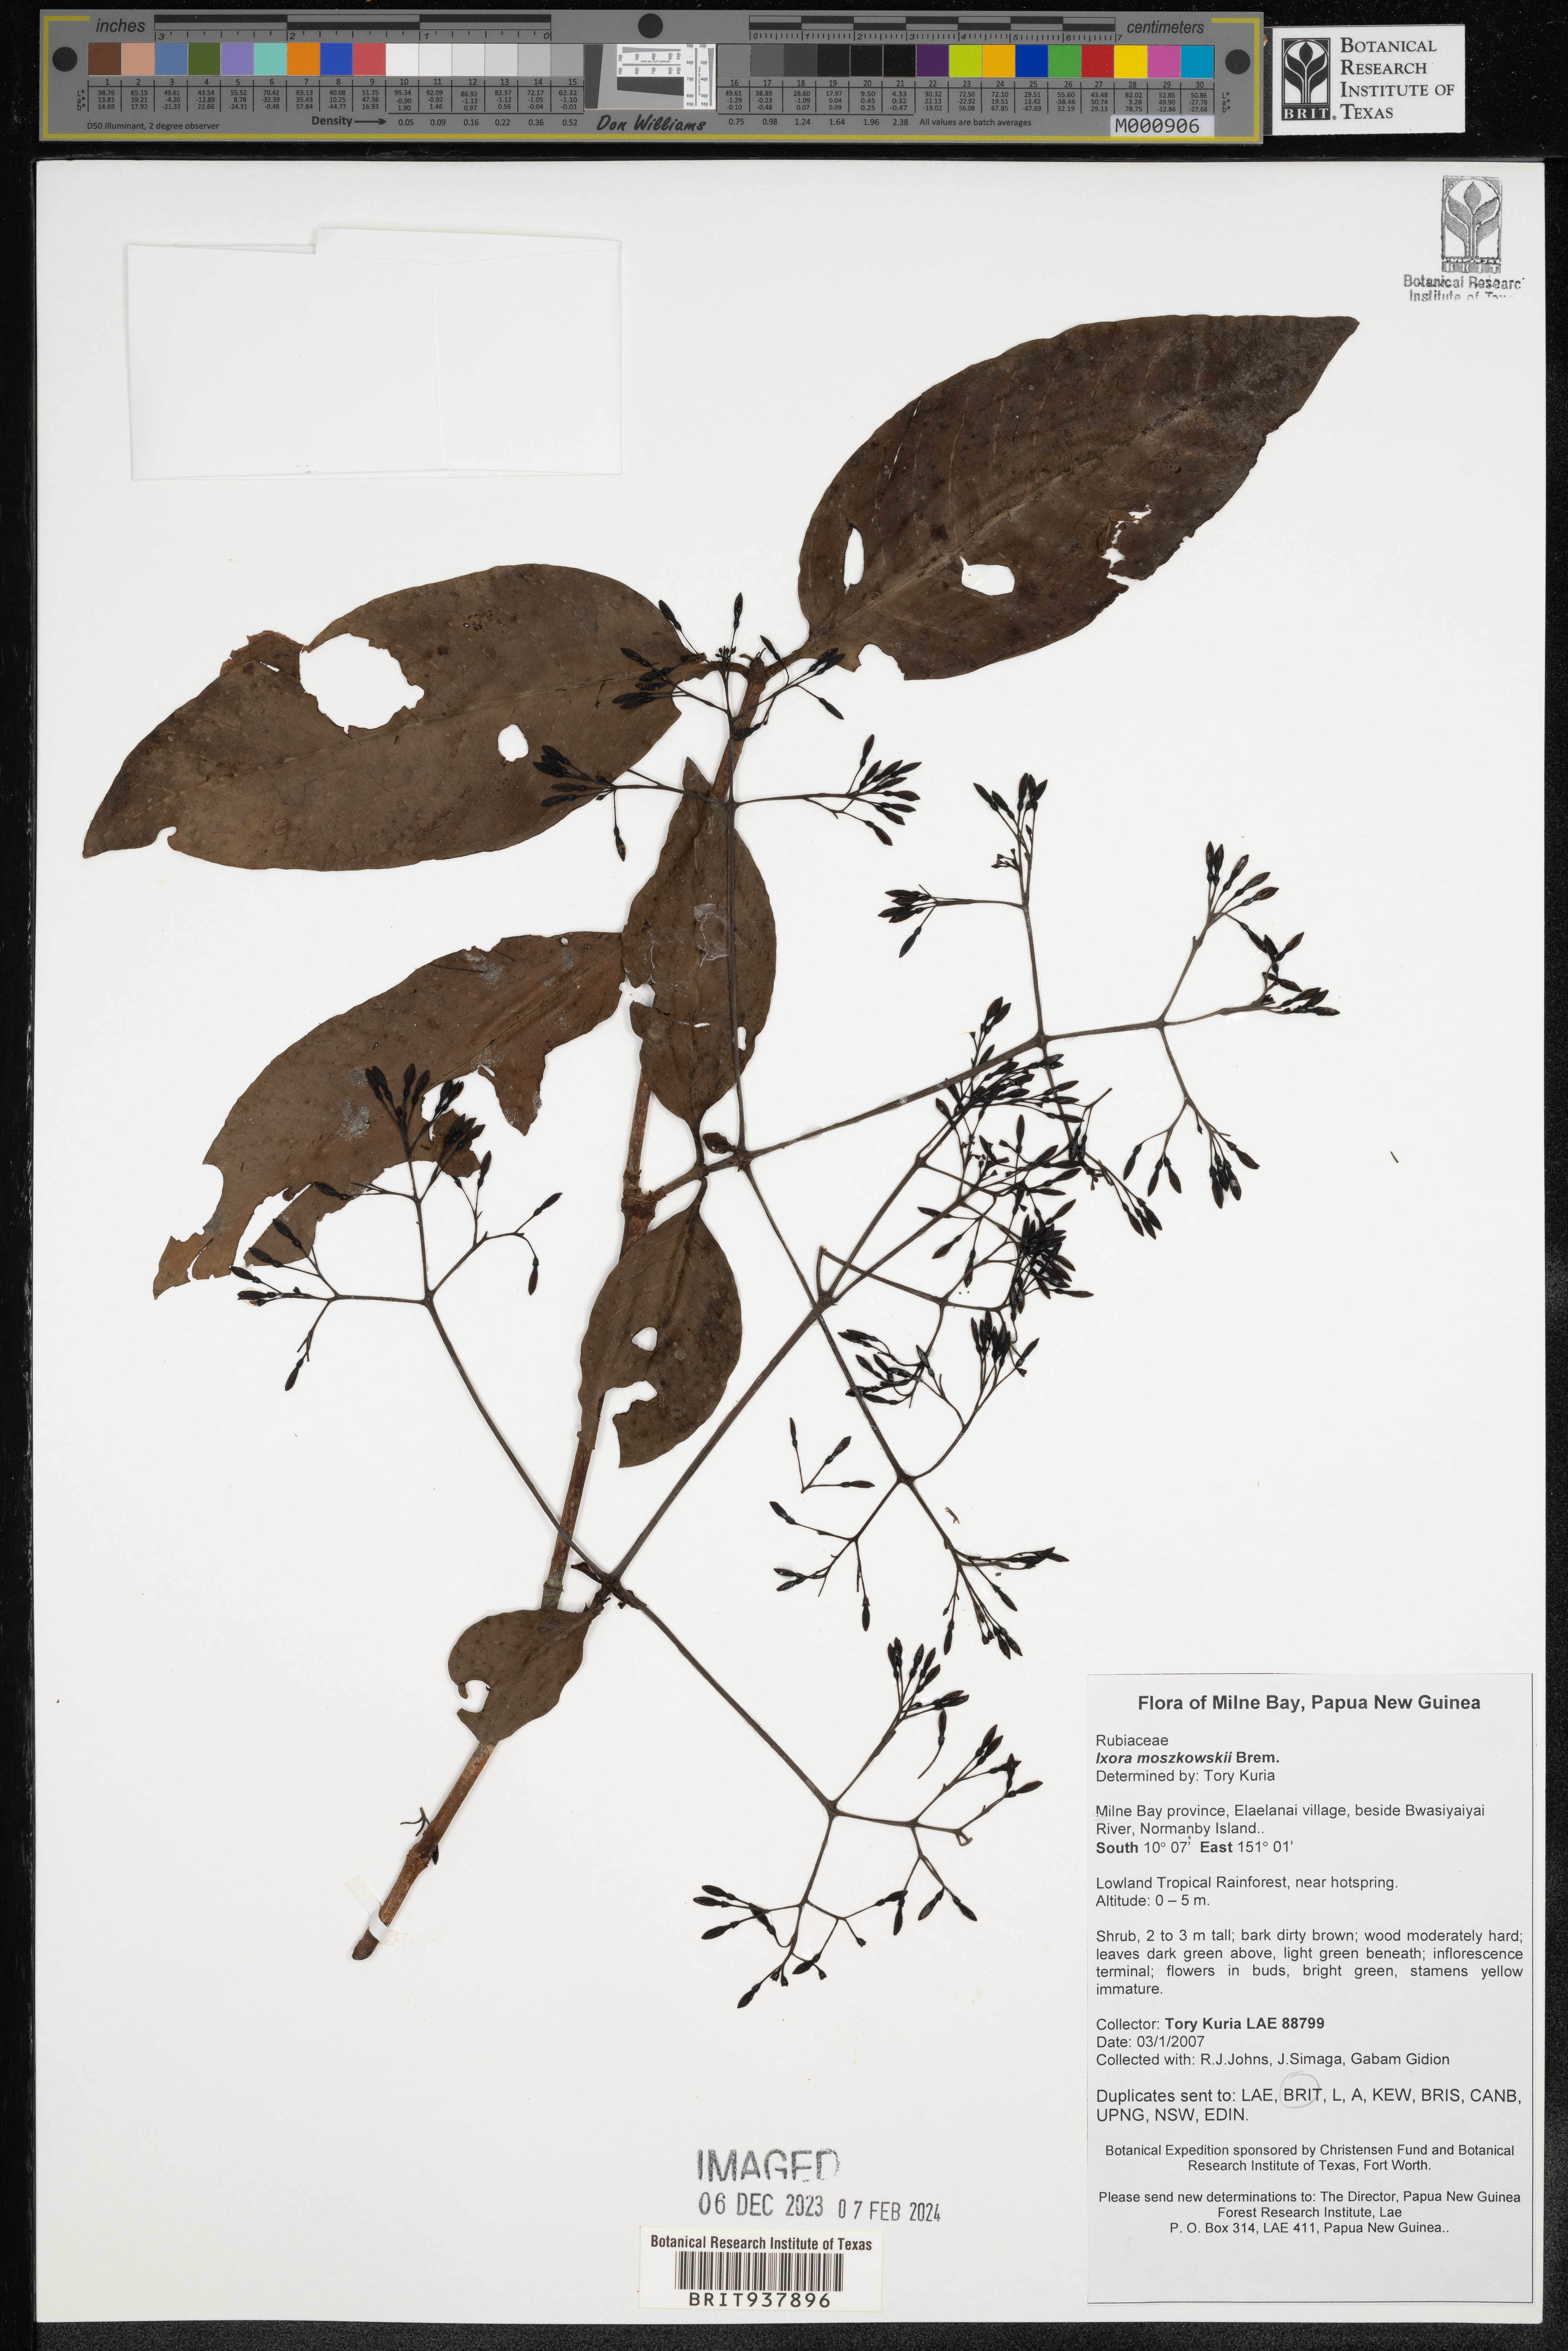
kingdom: Plantae
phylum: Tracheophyta
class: Magnoliopsida
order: Gentianales
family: Rubiaceae
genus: Ixora
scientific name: Ixora
